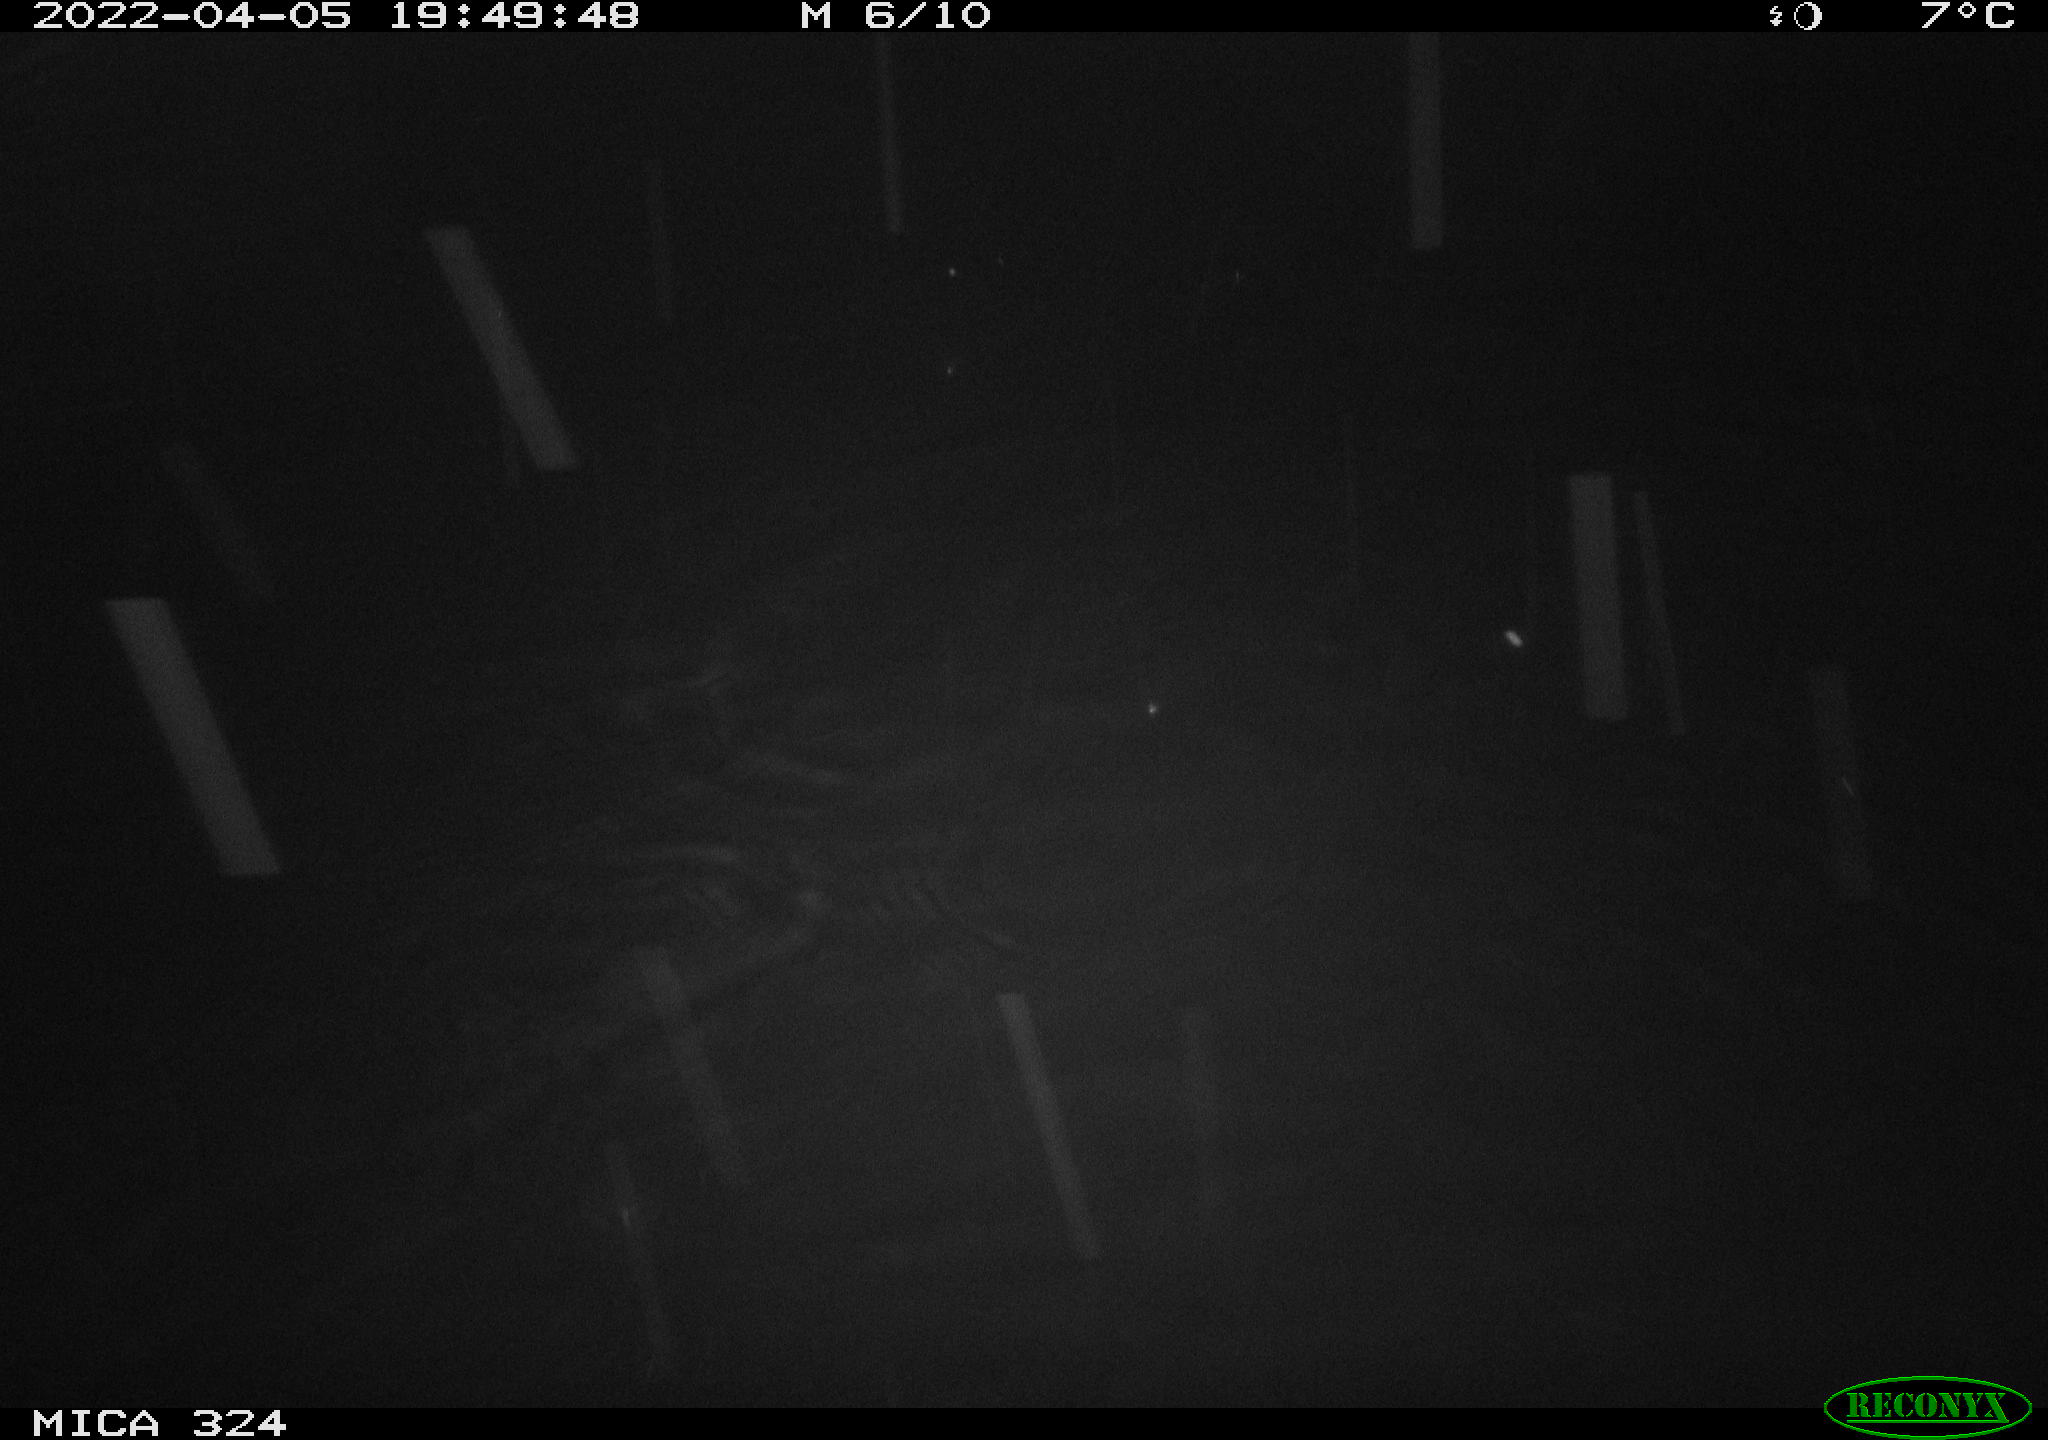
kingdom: Animalia
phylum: Chordata
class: Mammalia
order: Rodentia
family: Cricetidae
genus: Ondatra
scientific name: Ondatra zibethicus
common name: Muskrat
